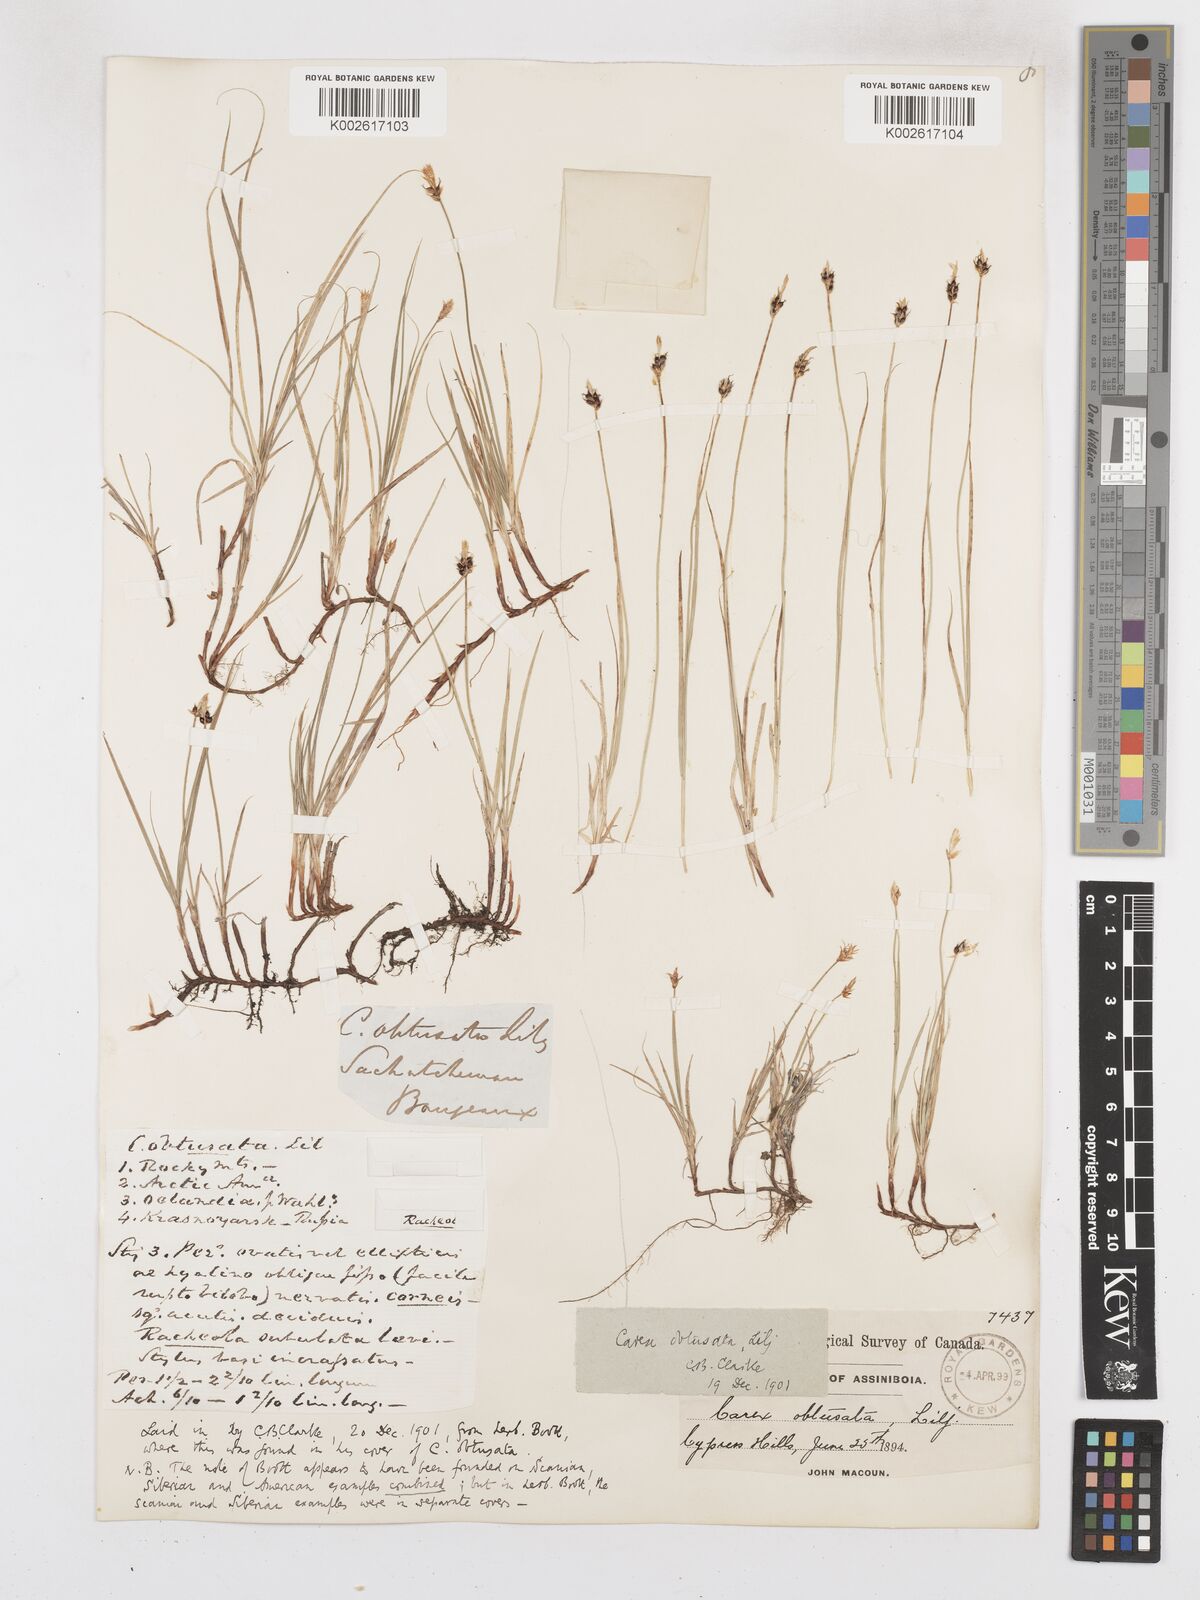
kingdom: Plantae
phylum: Tracheophyta
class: Liliopsida
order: Poales
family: Cyperaceae
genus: Carex
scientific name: Carex obtusata
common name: Blunt sedge
